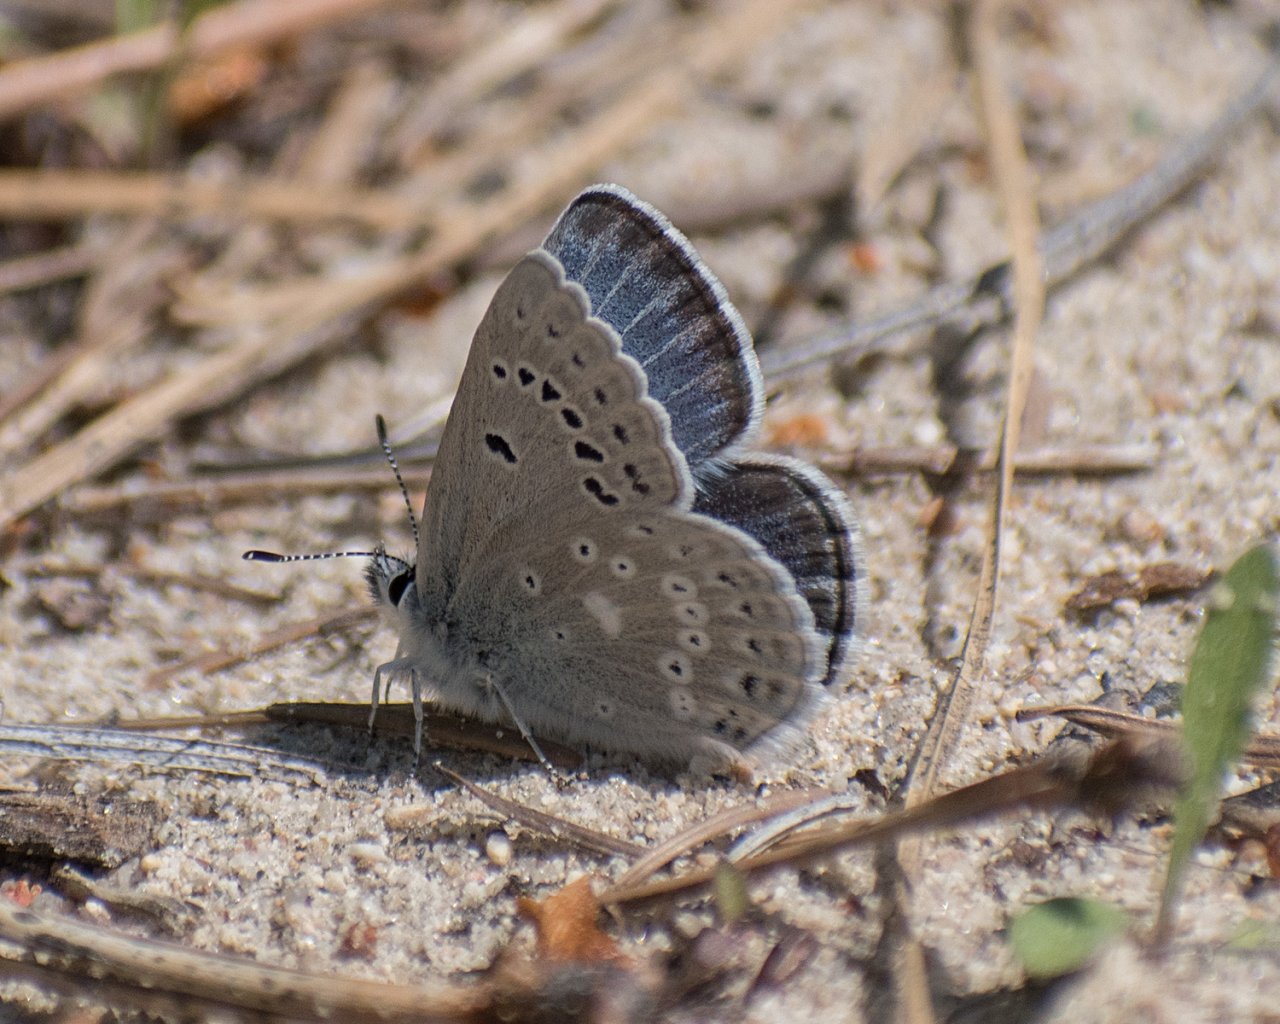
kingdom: Animalia
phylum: Arthropoda
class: Insecta
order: Lepidoptera
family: Lycaenidae
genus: Icaricia
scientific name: Icaricia icarioides
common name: Boisduval's Blue
